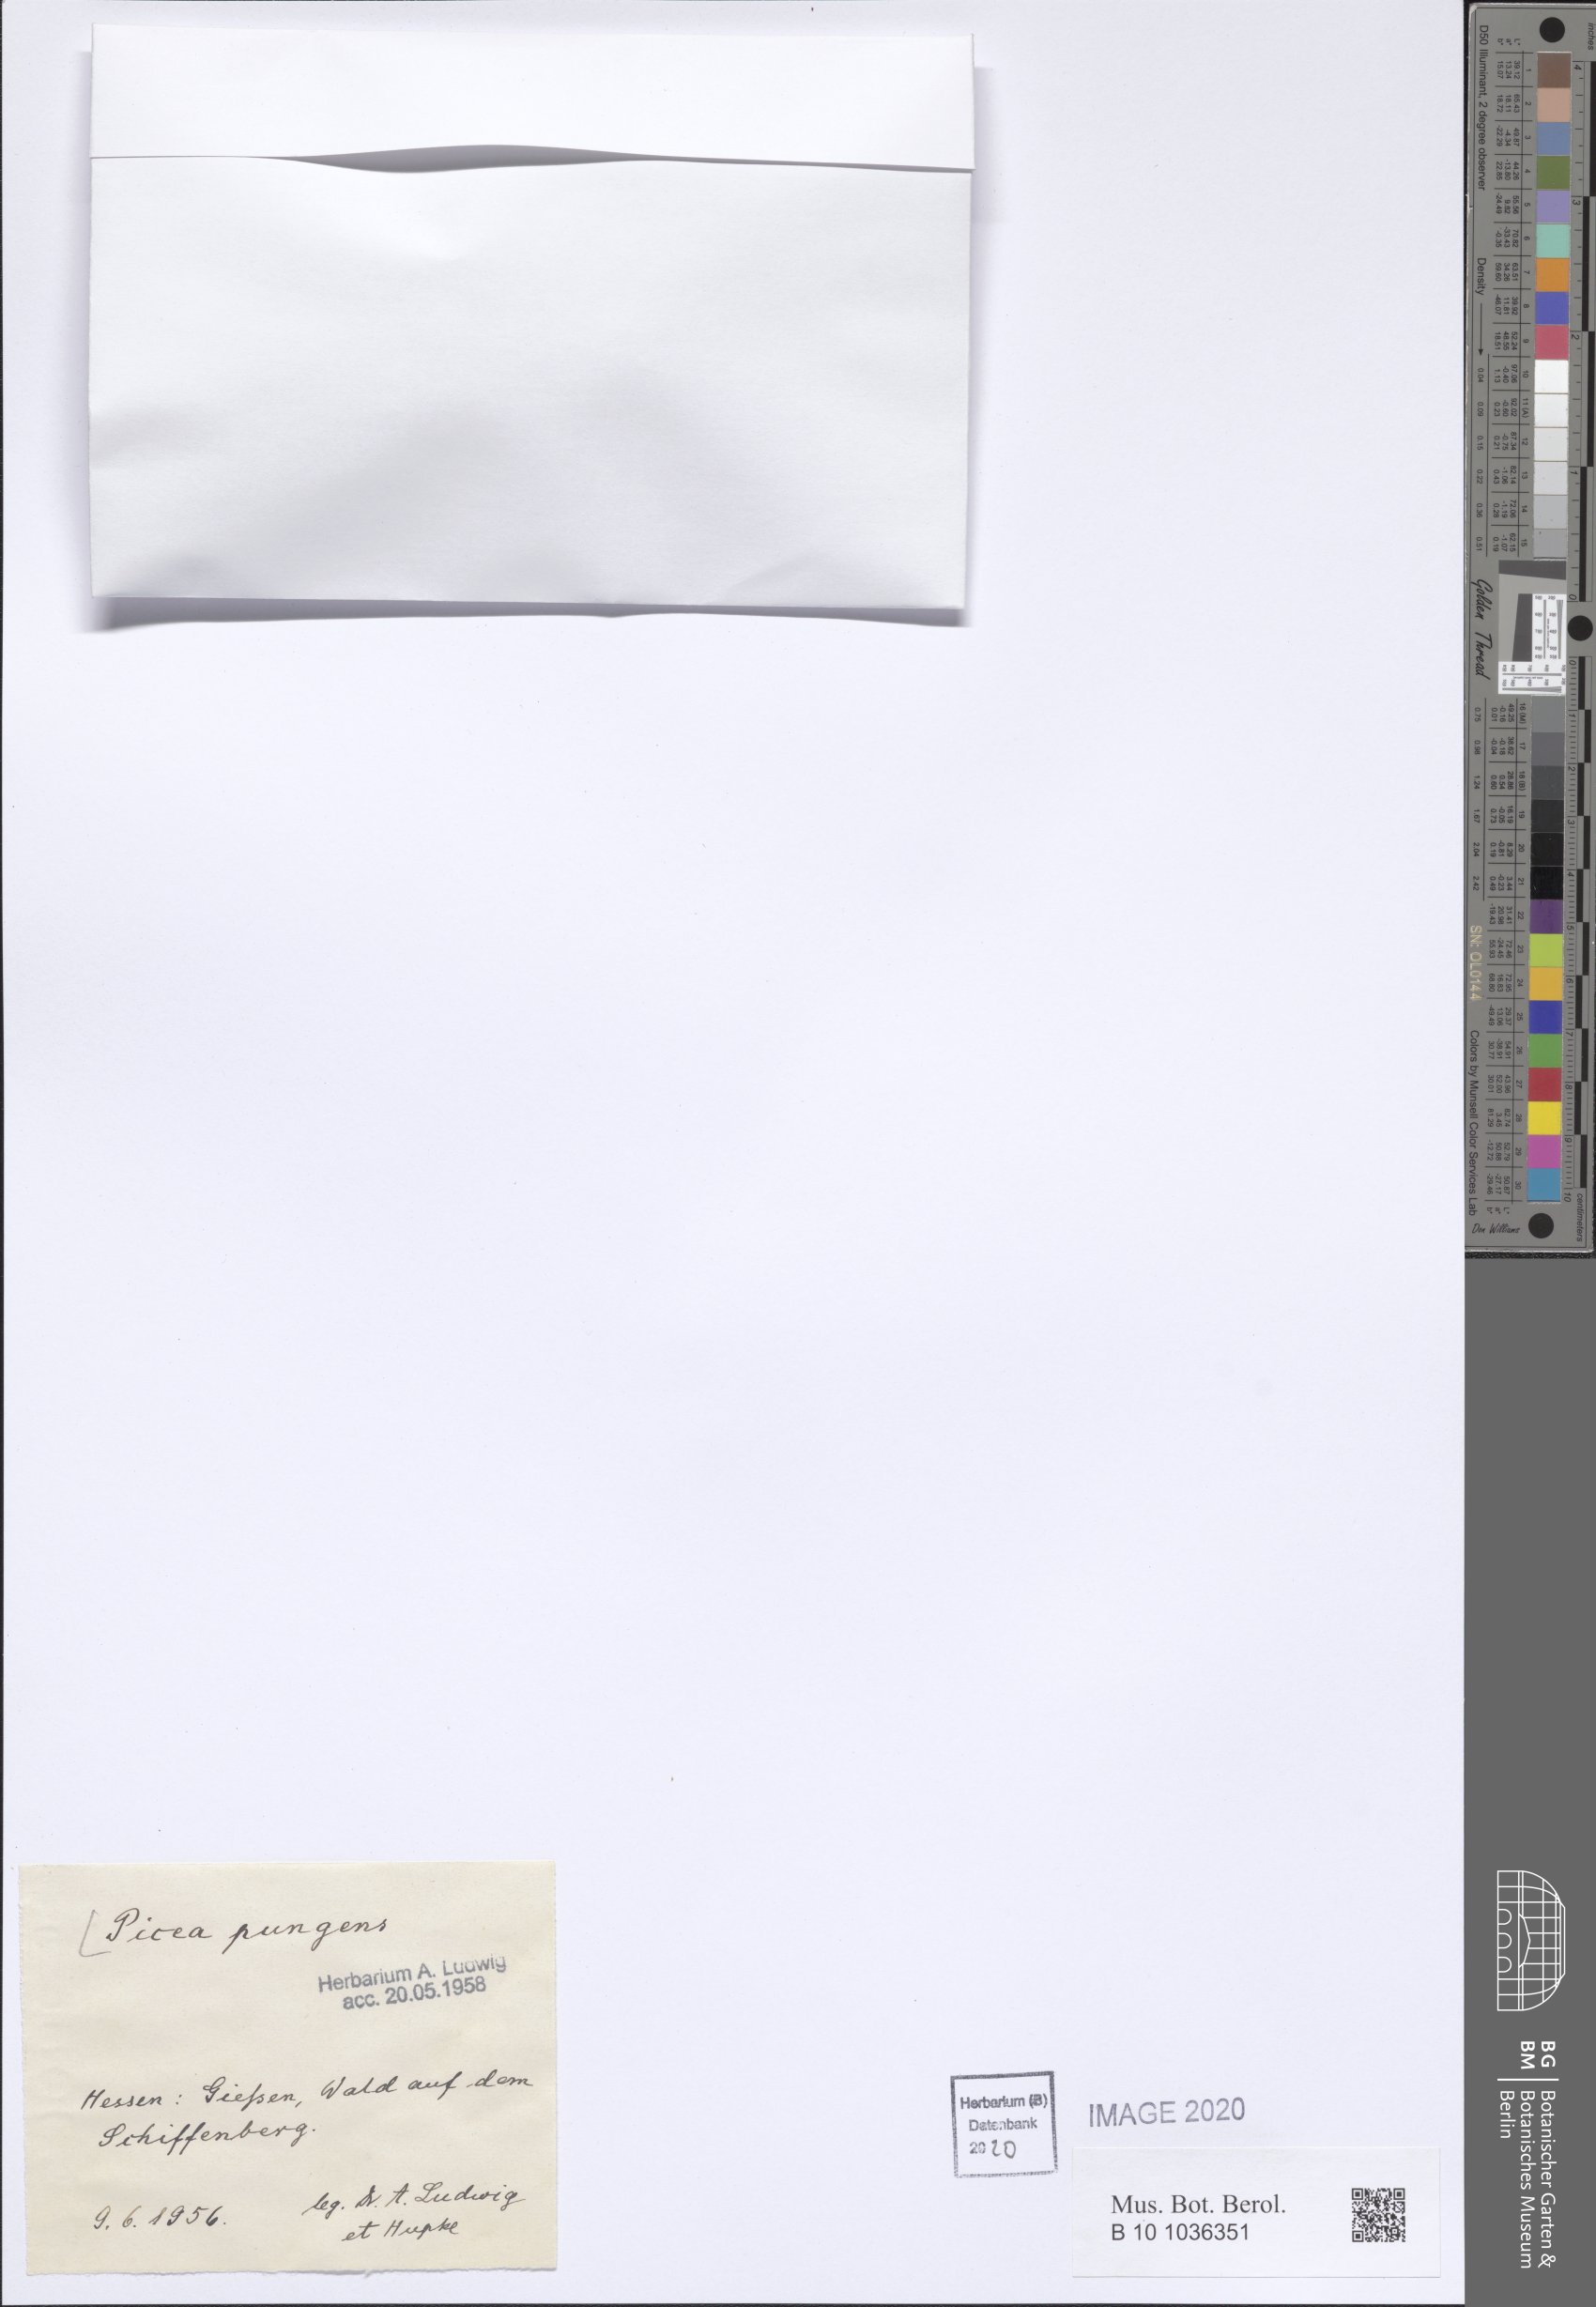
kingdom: Plantae
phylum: Tracheophyta
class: Pinopsida
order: Pinales
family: Pinaceae
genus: Picea
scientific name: Picea pungens
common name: Colorado spruce
